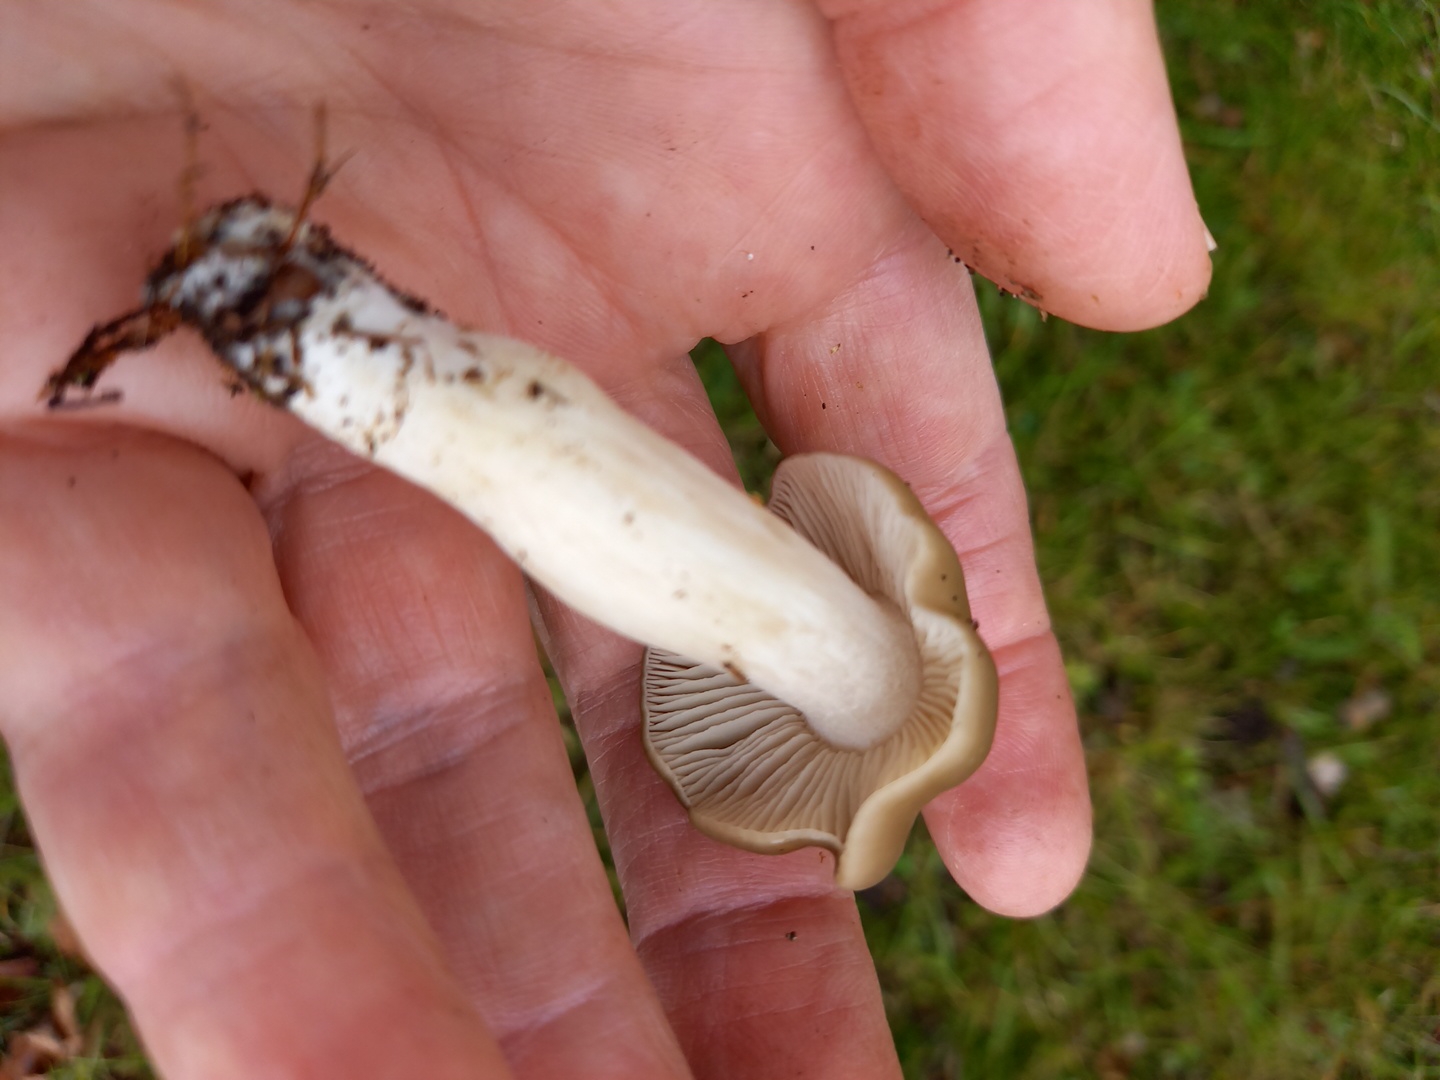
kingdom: Fungi
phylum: Basidiomycota
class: Agaricomycetes
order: Agaricales
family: Entolomataceae
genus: Entoloma
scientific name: Entoloma lividoalbum
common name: lysstokket rødblad
